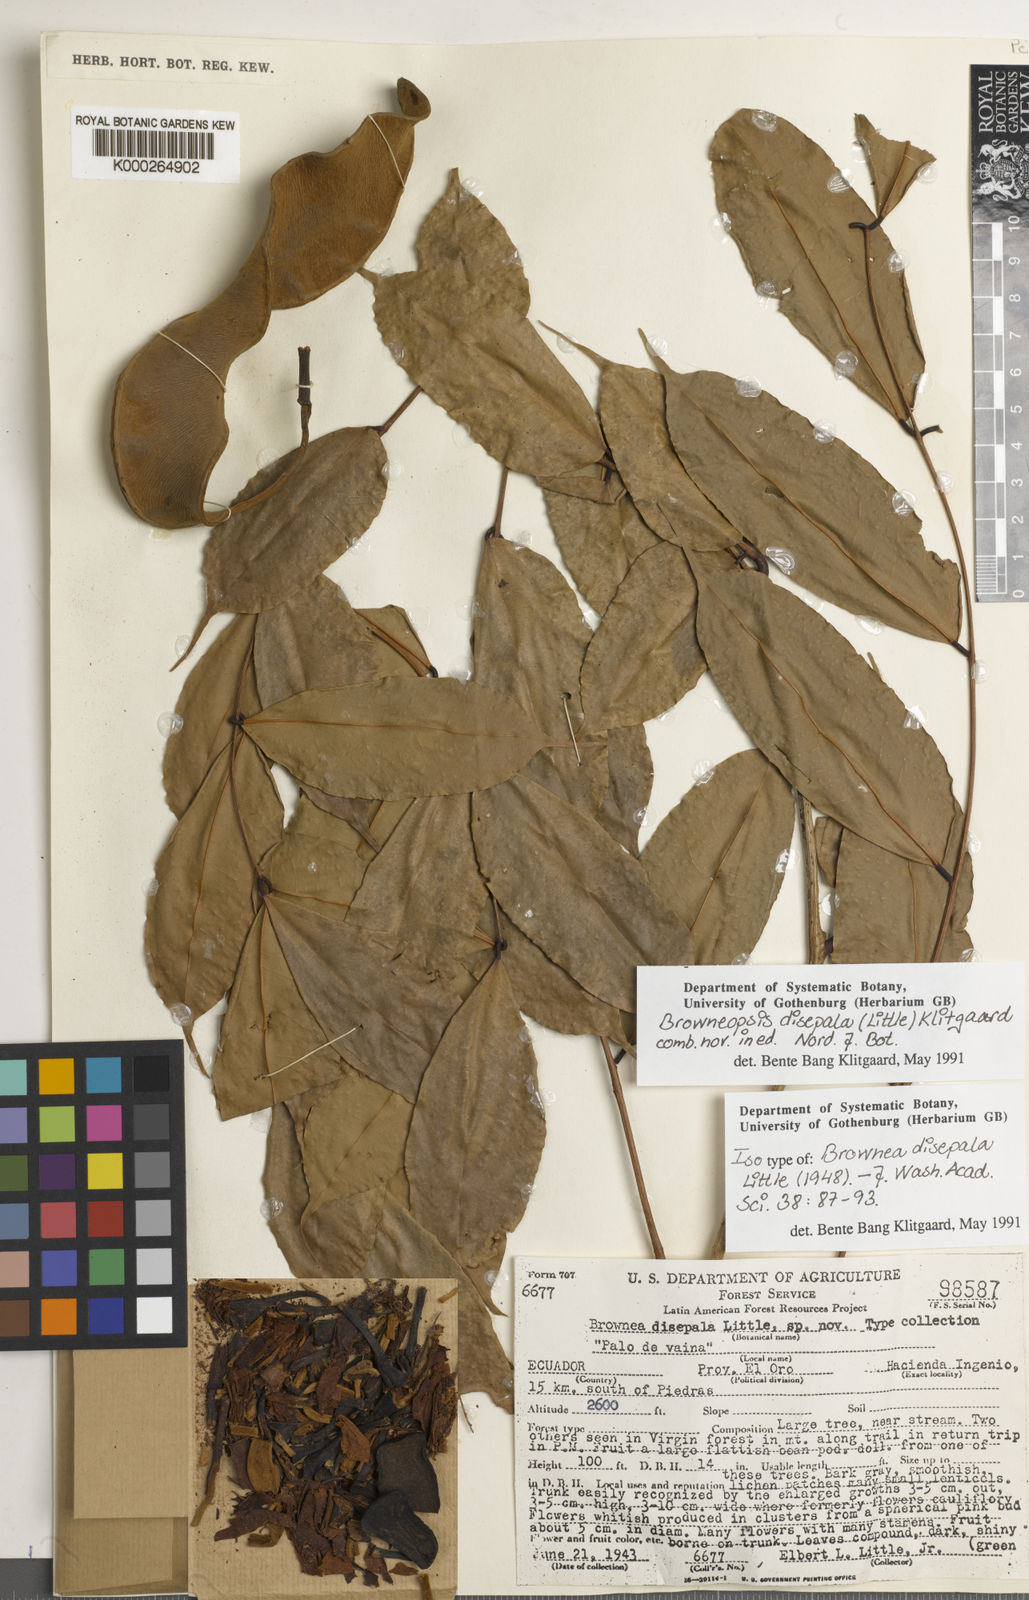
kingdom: Plantae
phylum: Tracheophyta
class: Magnoliopsida
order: Fabales
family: Fabaceae
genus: Browneopsis
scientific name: Browneopsis disepala
